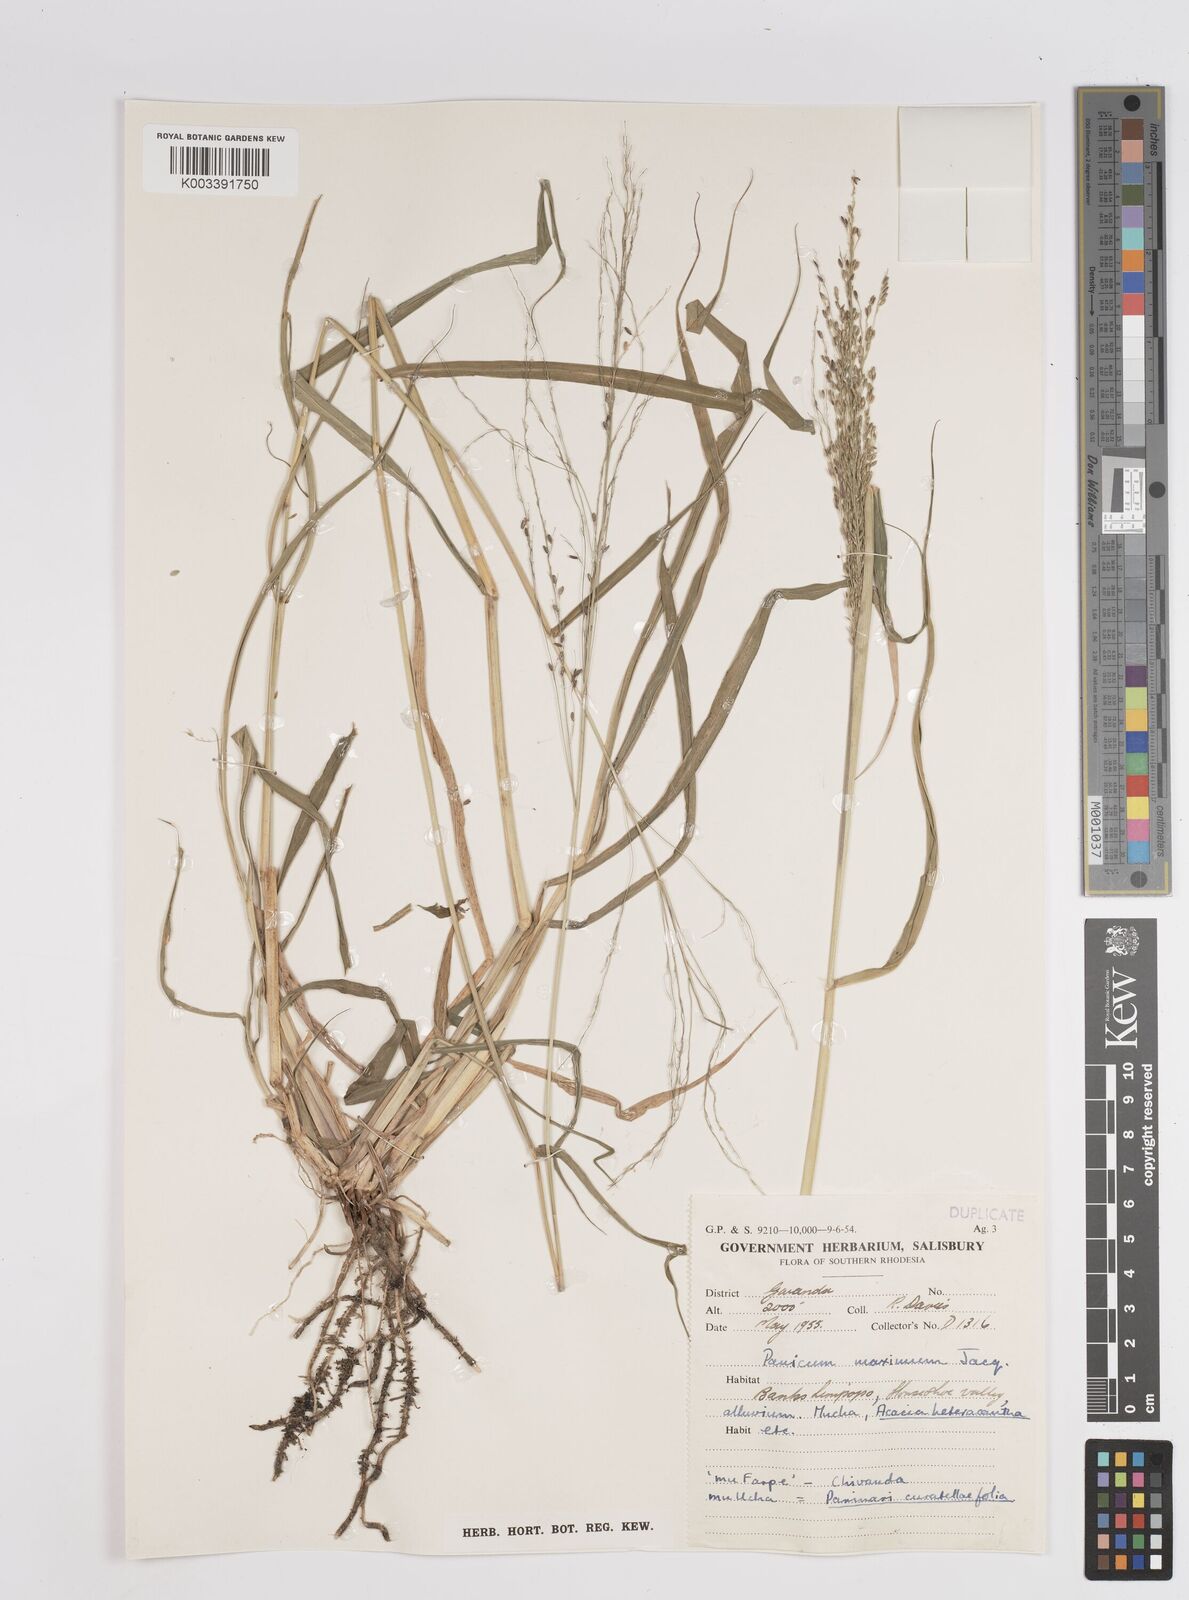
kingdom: Plantae
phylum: Tracheophyta
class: Liliopsida
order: Poales
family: Poaceae
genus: Megathyrsus
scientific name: Megathyrsus maximus
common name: Guineagrass
